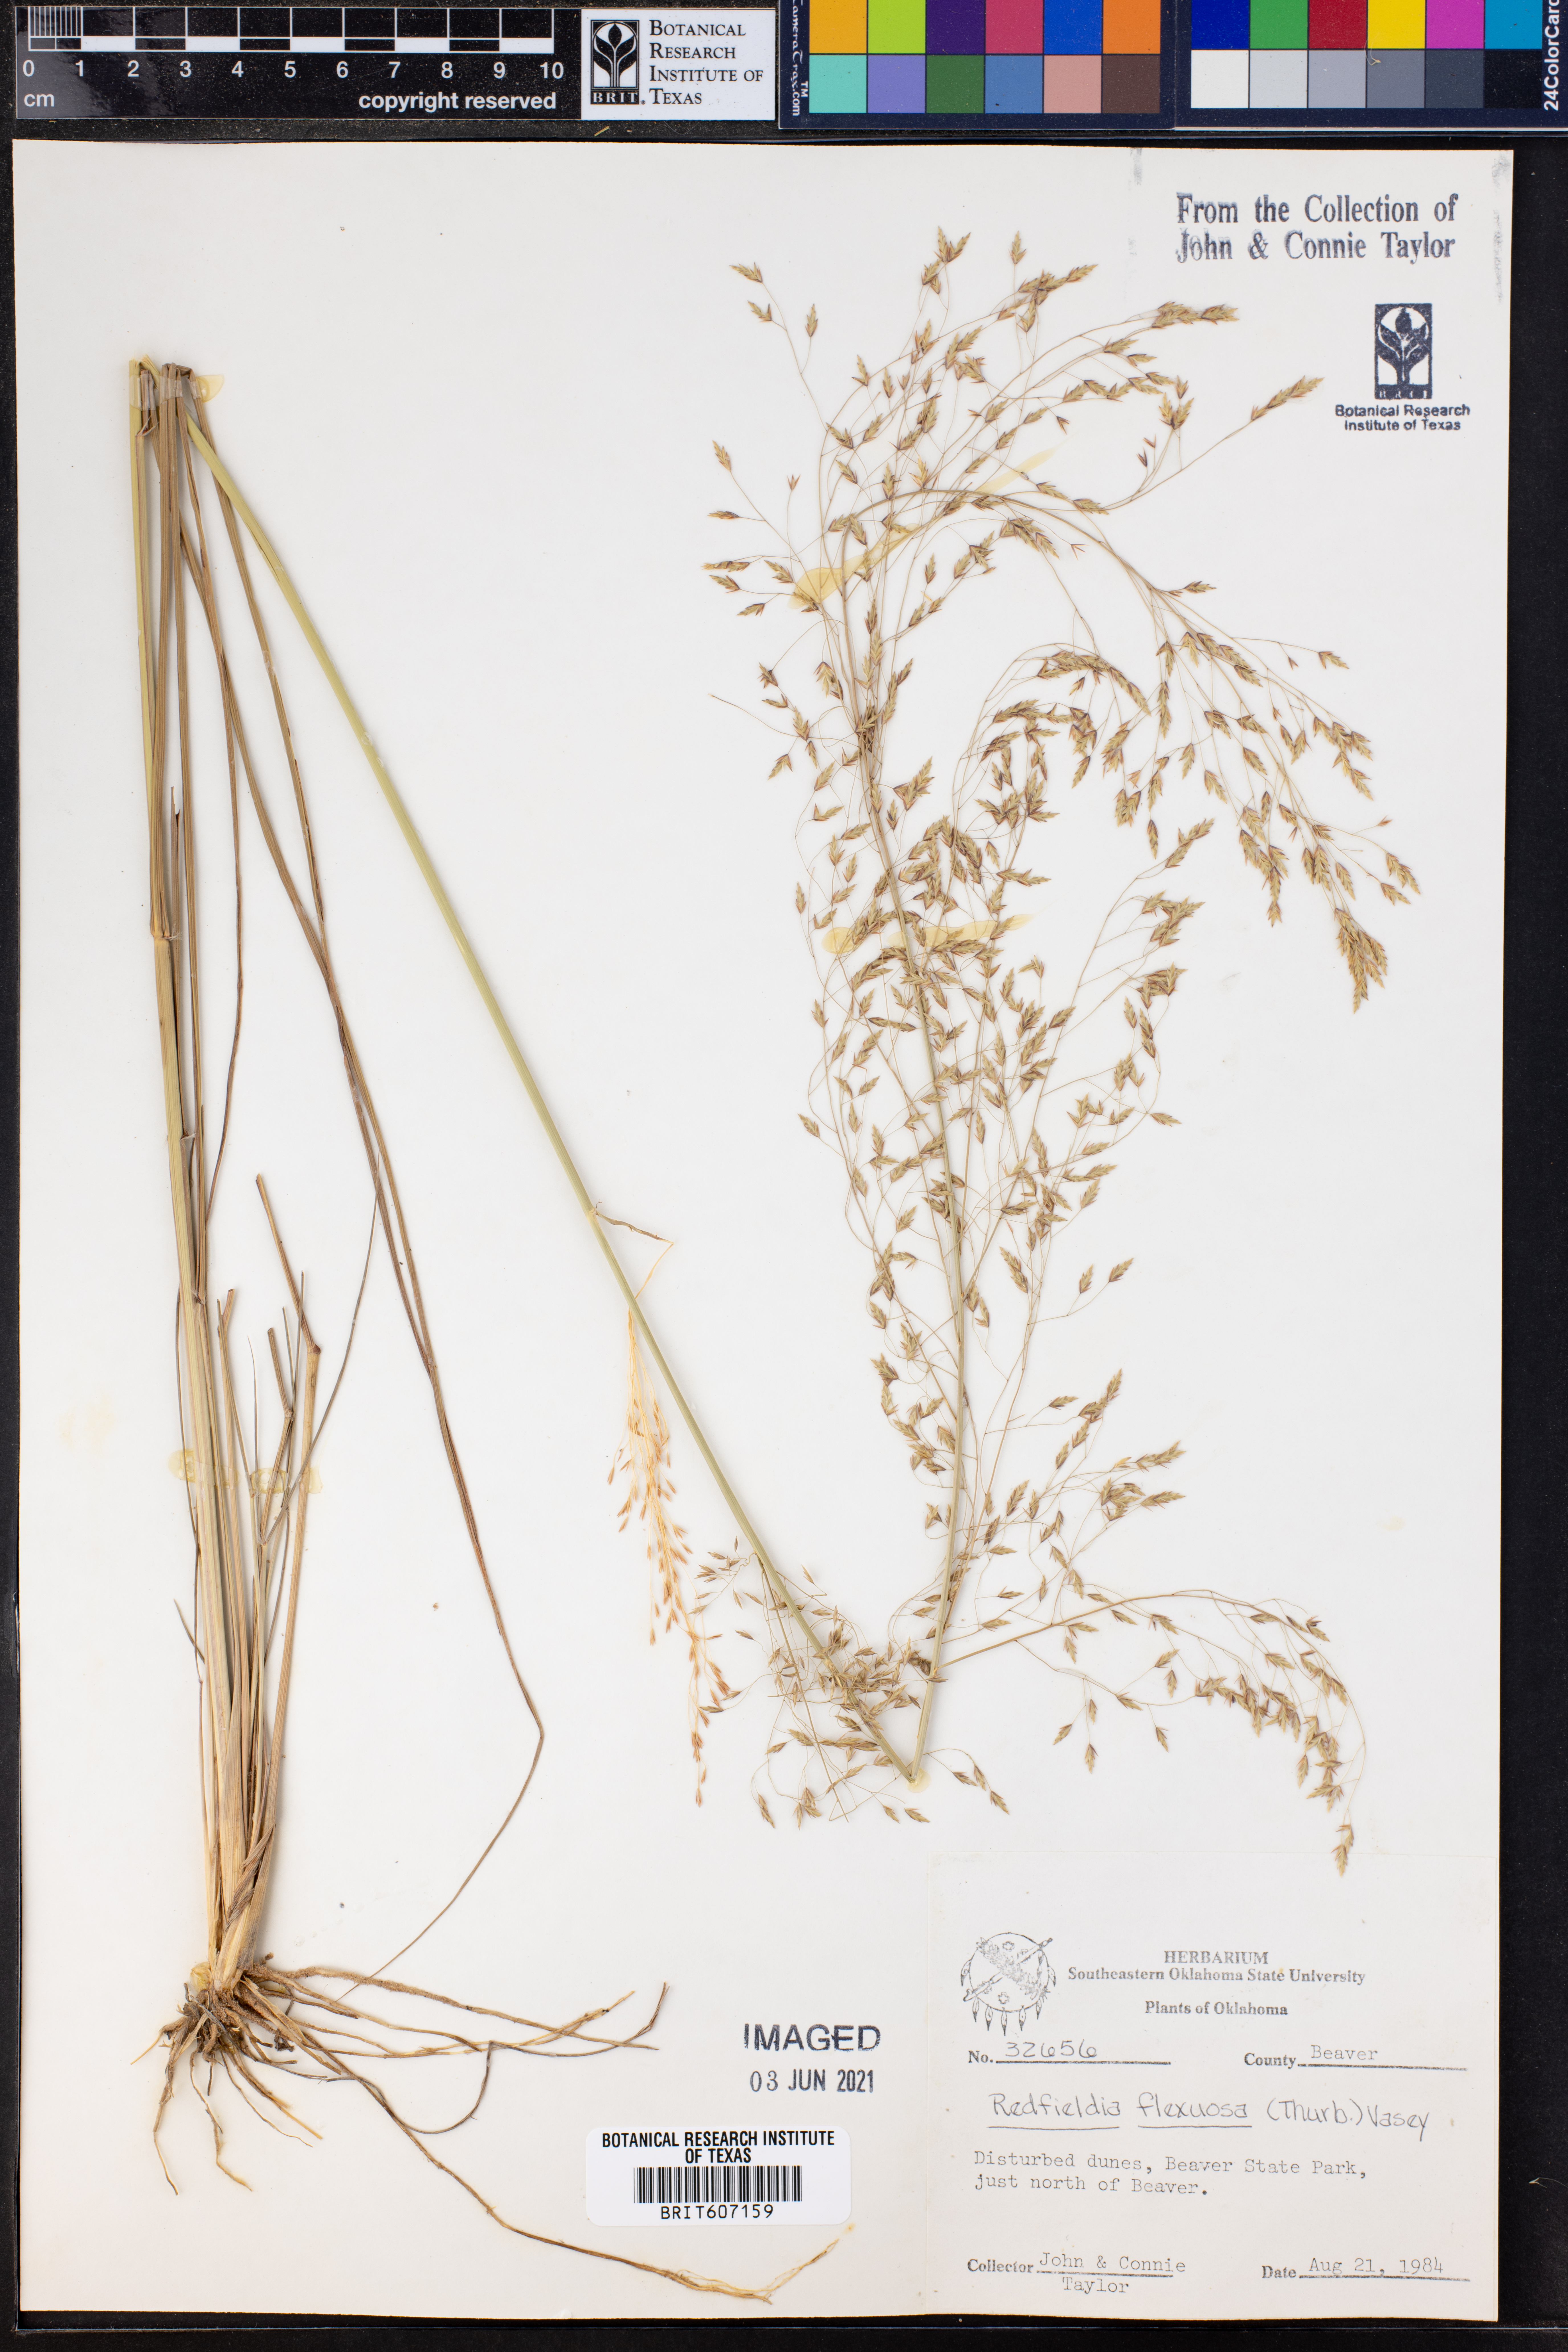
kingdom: Plantae
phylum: Tracheophyta
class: Liliopsida
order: Poales
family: Poaceae
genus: Muhlenbergia
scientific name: Muhlenbergia multiflora
